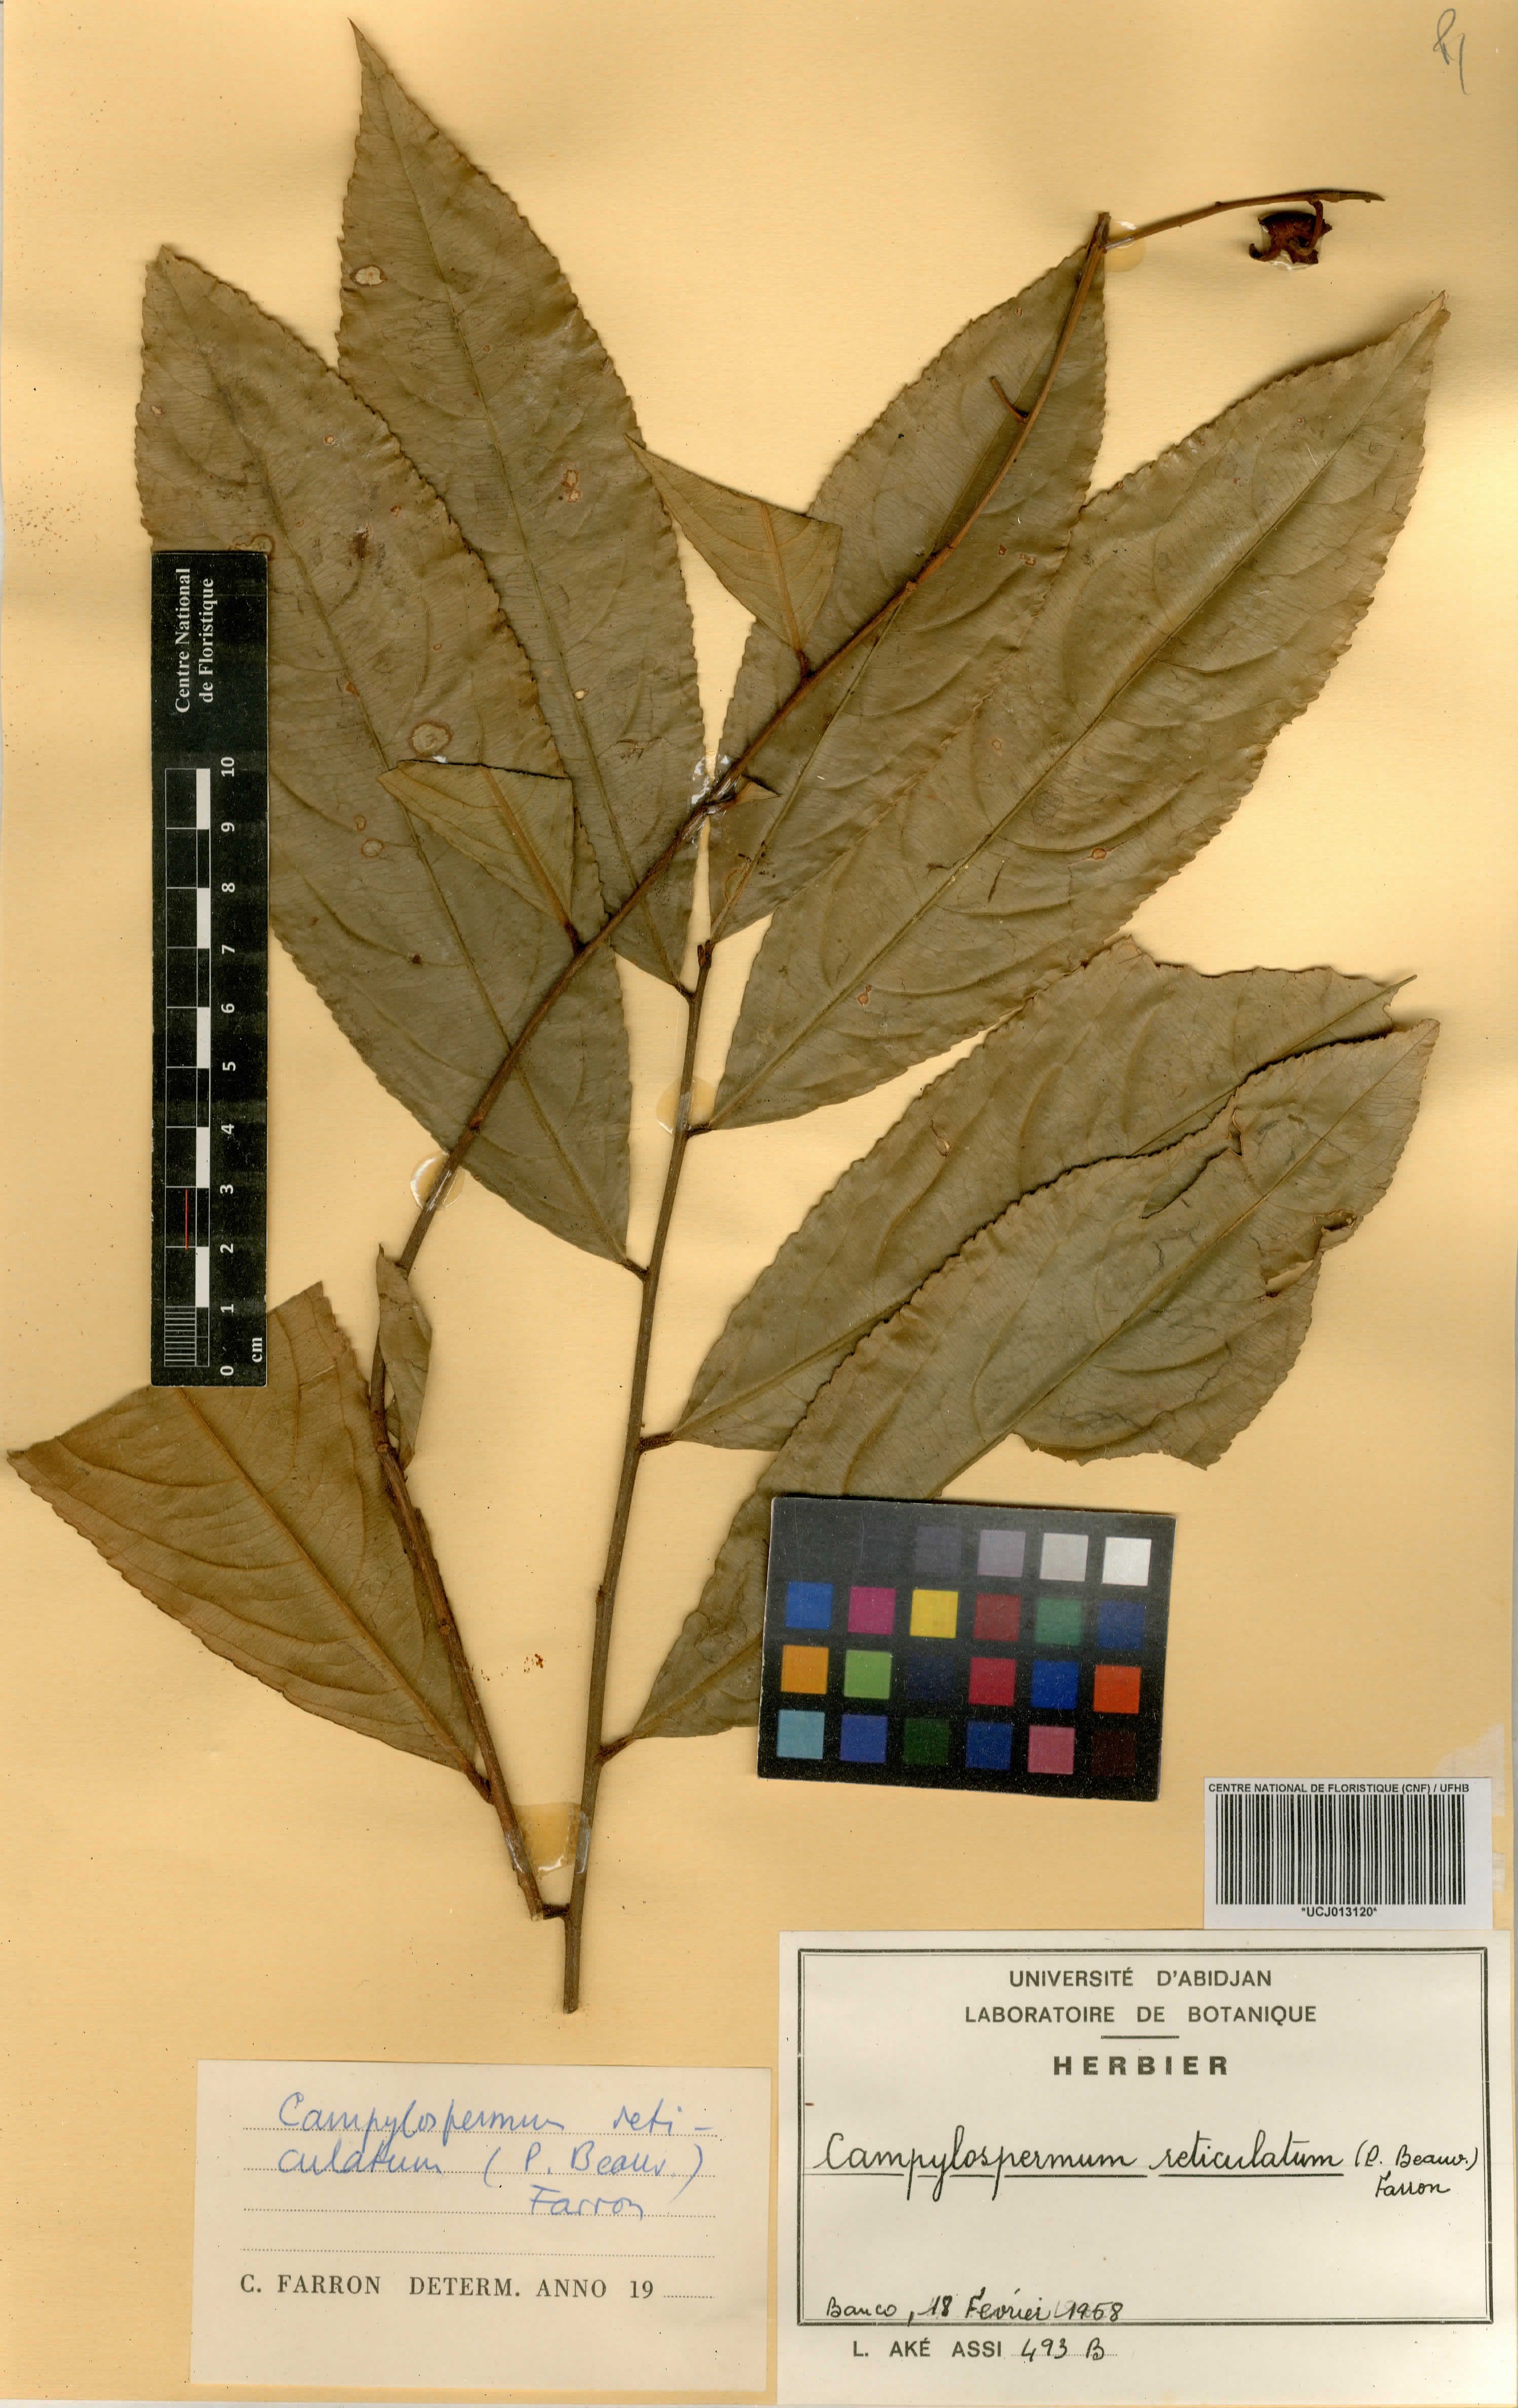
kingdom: Plantae
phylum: Tracheophyta
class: Magnoliopsida
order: Malpighiales
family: Ochnaceae
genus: Campylospermum
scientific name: Campylospermum reticulatum
